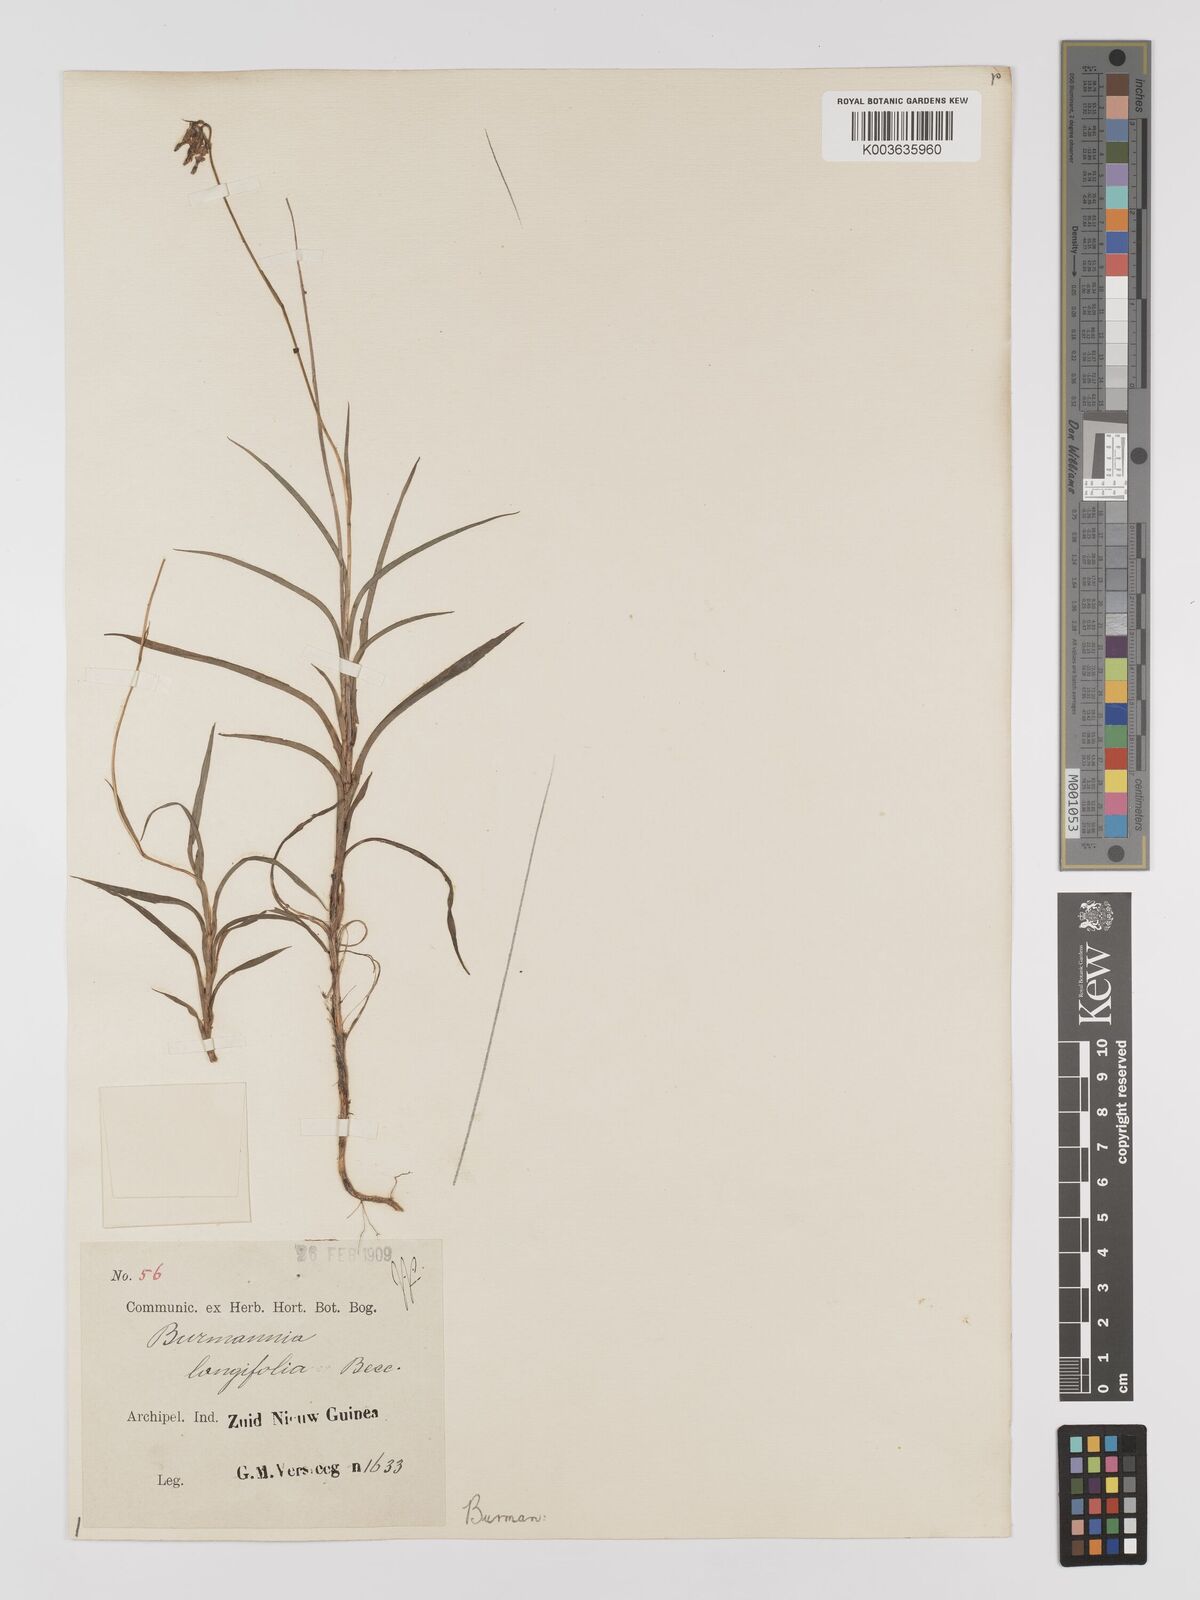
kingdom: Plantae
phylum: Tracheophyta
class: Liliopsida
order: Dioscoreales
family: Burmanniaceae
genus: Burmannia
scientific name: Burmannia longifolia
